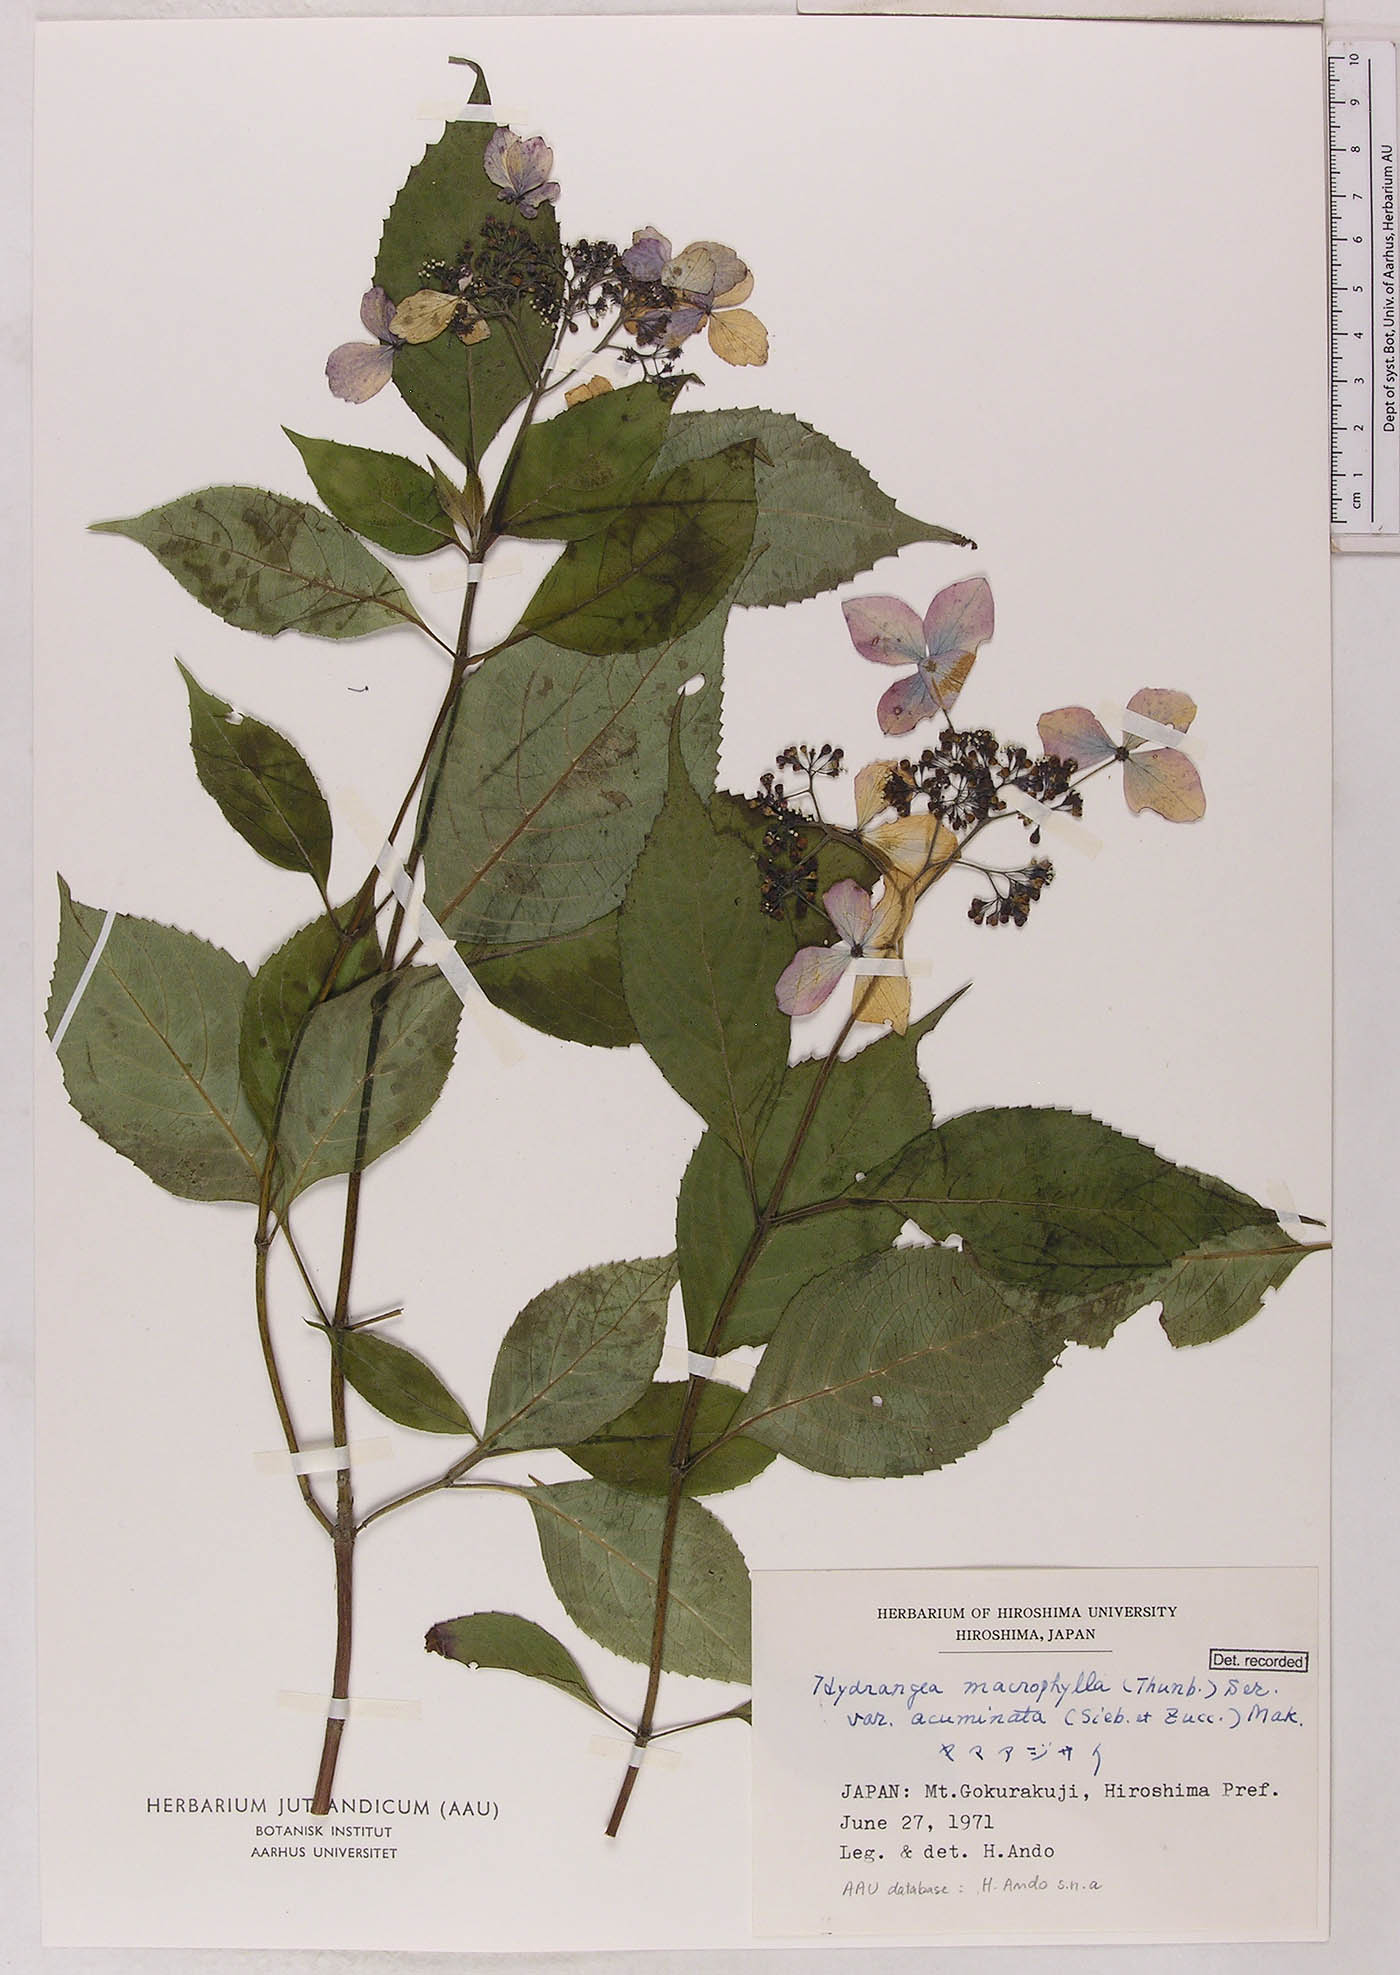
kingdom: Plantae
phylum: Tracheophyta
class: Magnoliopsida
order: Cornales
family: Hydrangeaceae
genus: Hydrangea
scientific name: Hydrangea serrata
